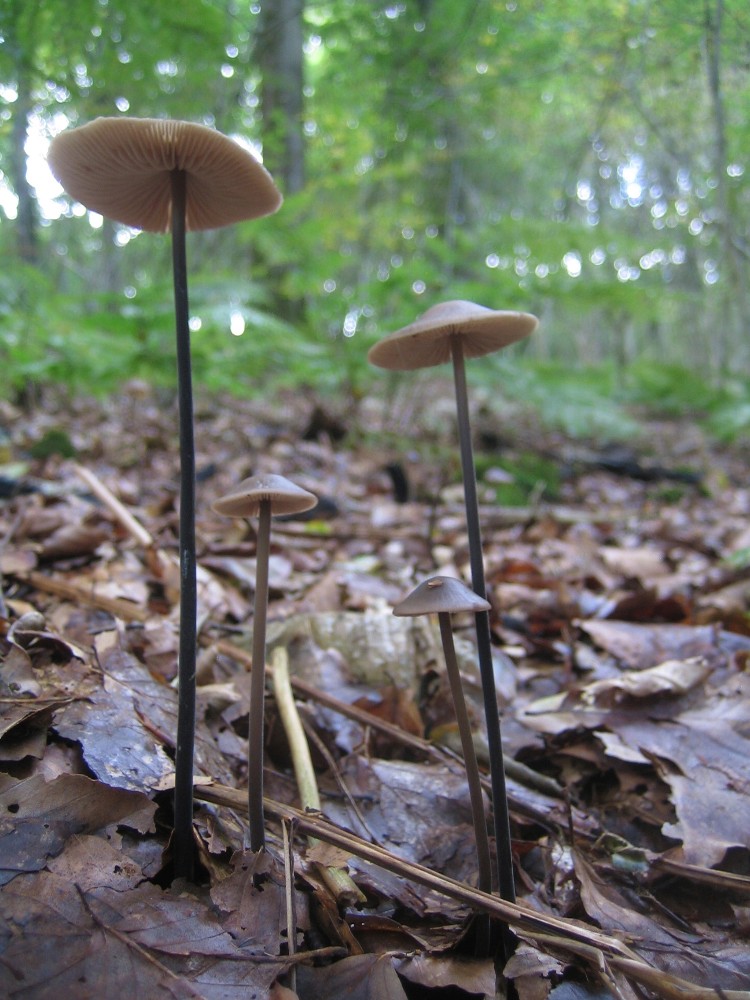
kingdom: Fungi
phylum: Basidiomycota
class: Agaricomycetes
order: Agaricales
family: Omphalotaceae
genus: Mycetinis
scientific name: Mycetinis alliaceus
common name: stor løghat
